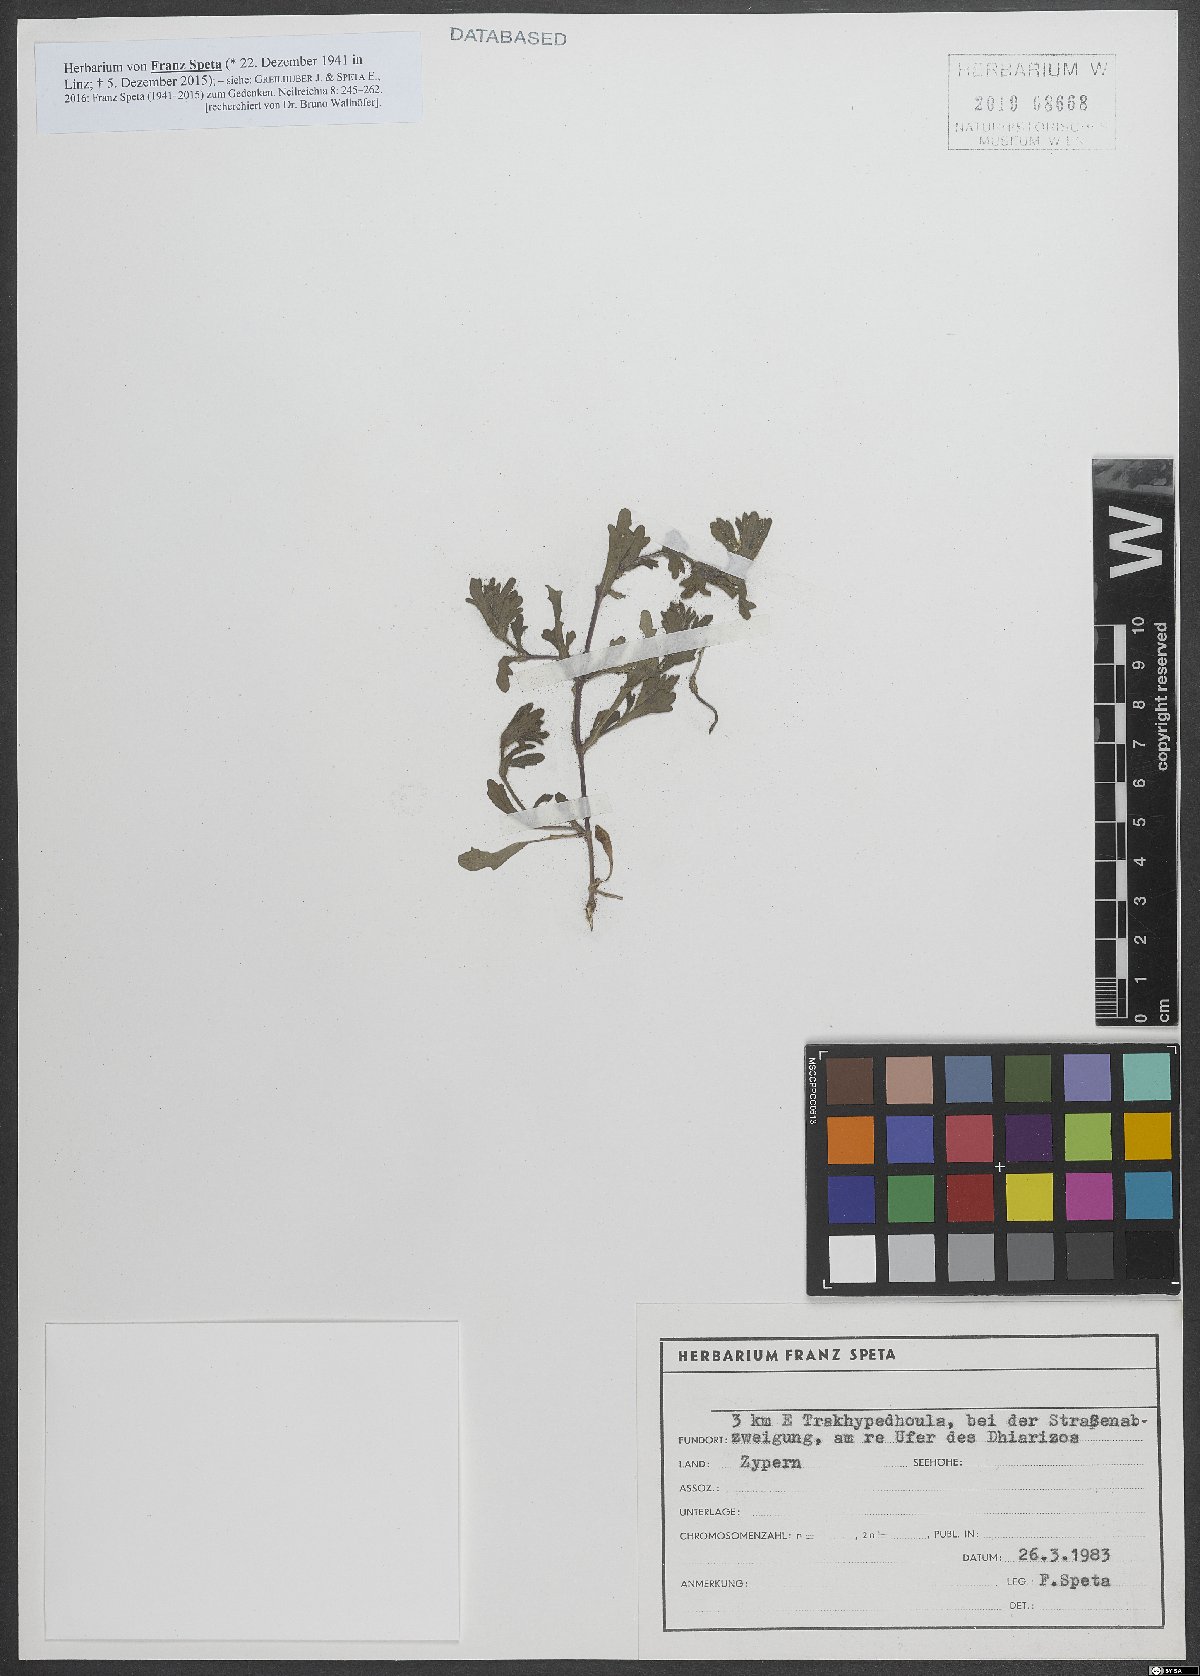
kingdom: Plantae
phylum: Tracheophyta
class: Magnoliopsida
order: Lamiales
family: Lamiaceae
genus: Ajuga
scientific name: Ajuga
